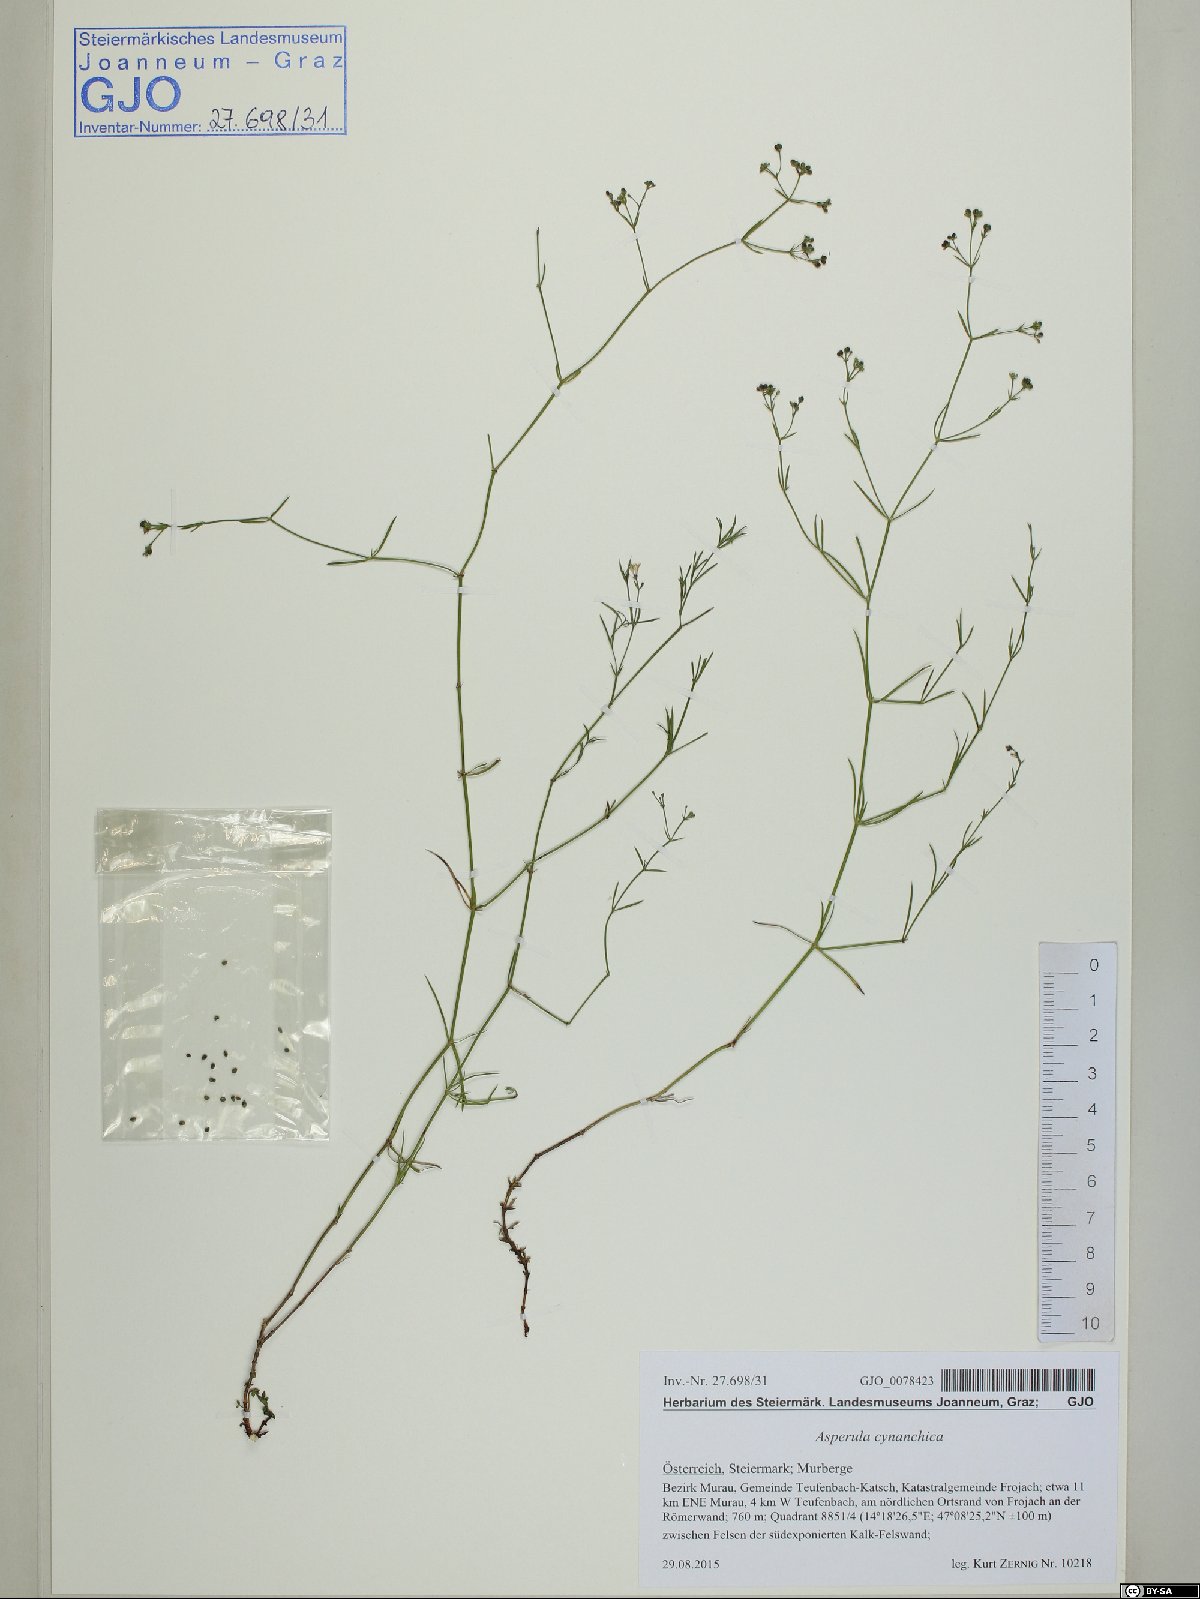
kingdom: Plantae
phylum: Tracheophyta
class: Magnoliopsida
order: Gentianales
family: Rubiaceae
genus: Cynanchica
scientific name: Cynanchica pyrenaica
